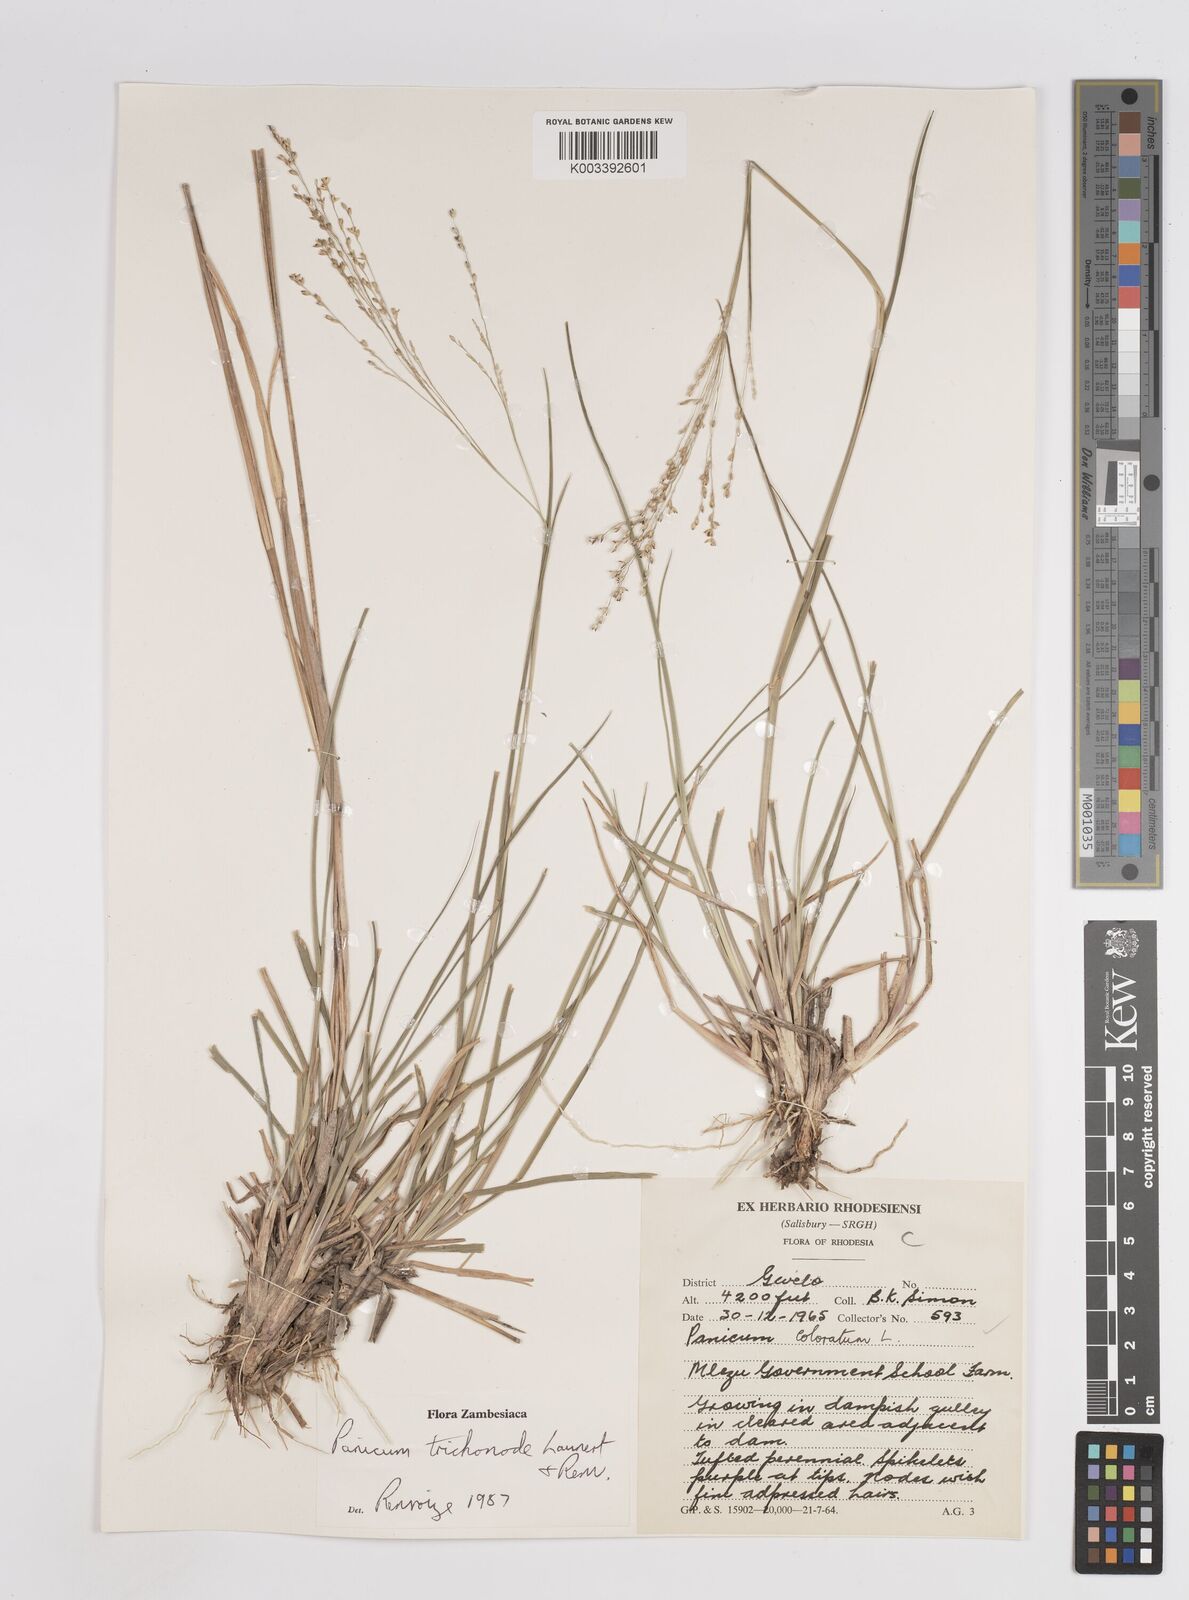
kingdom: Plantae
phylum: Tracheophyta
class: Liliopsida
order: Poales
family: Poaceae
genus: Panicum
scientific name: Panicum trichonode
